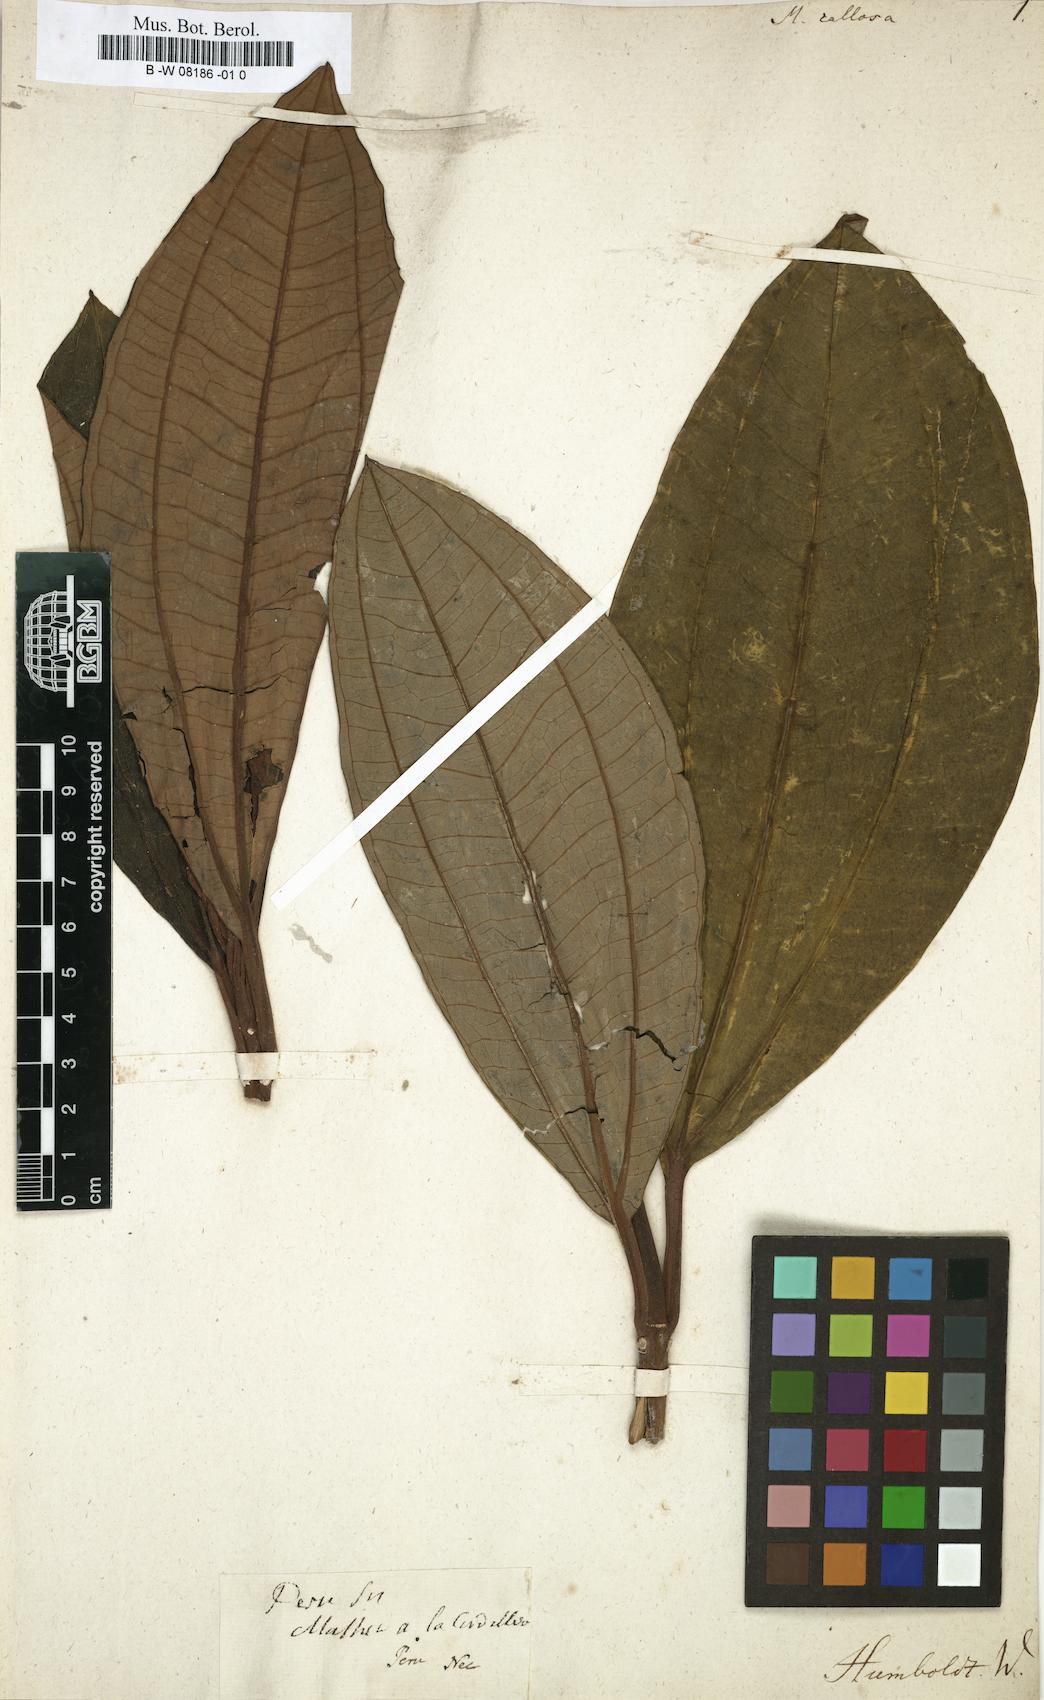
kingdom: Plantae
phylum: Tracheophyta
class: Magnoliopsida
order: Myrtales
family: Melastomataceae
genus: Melastoma
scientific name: Melastoma
